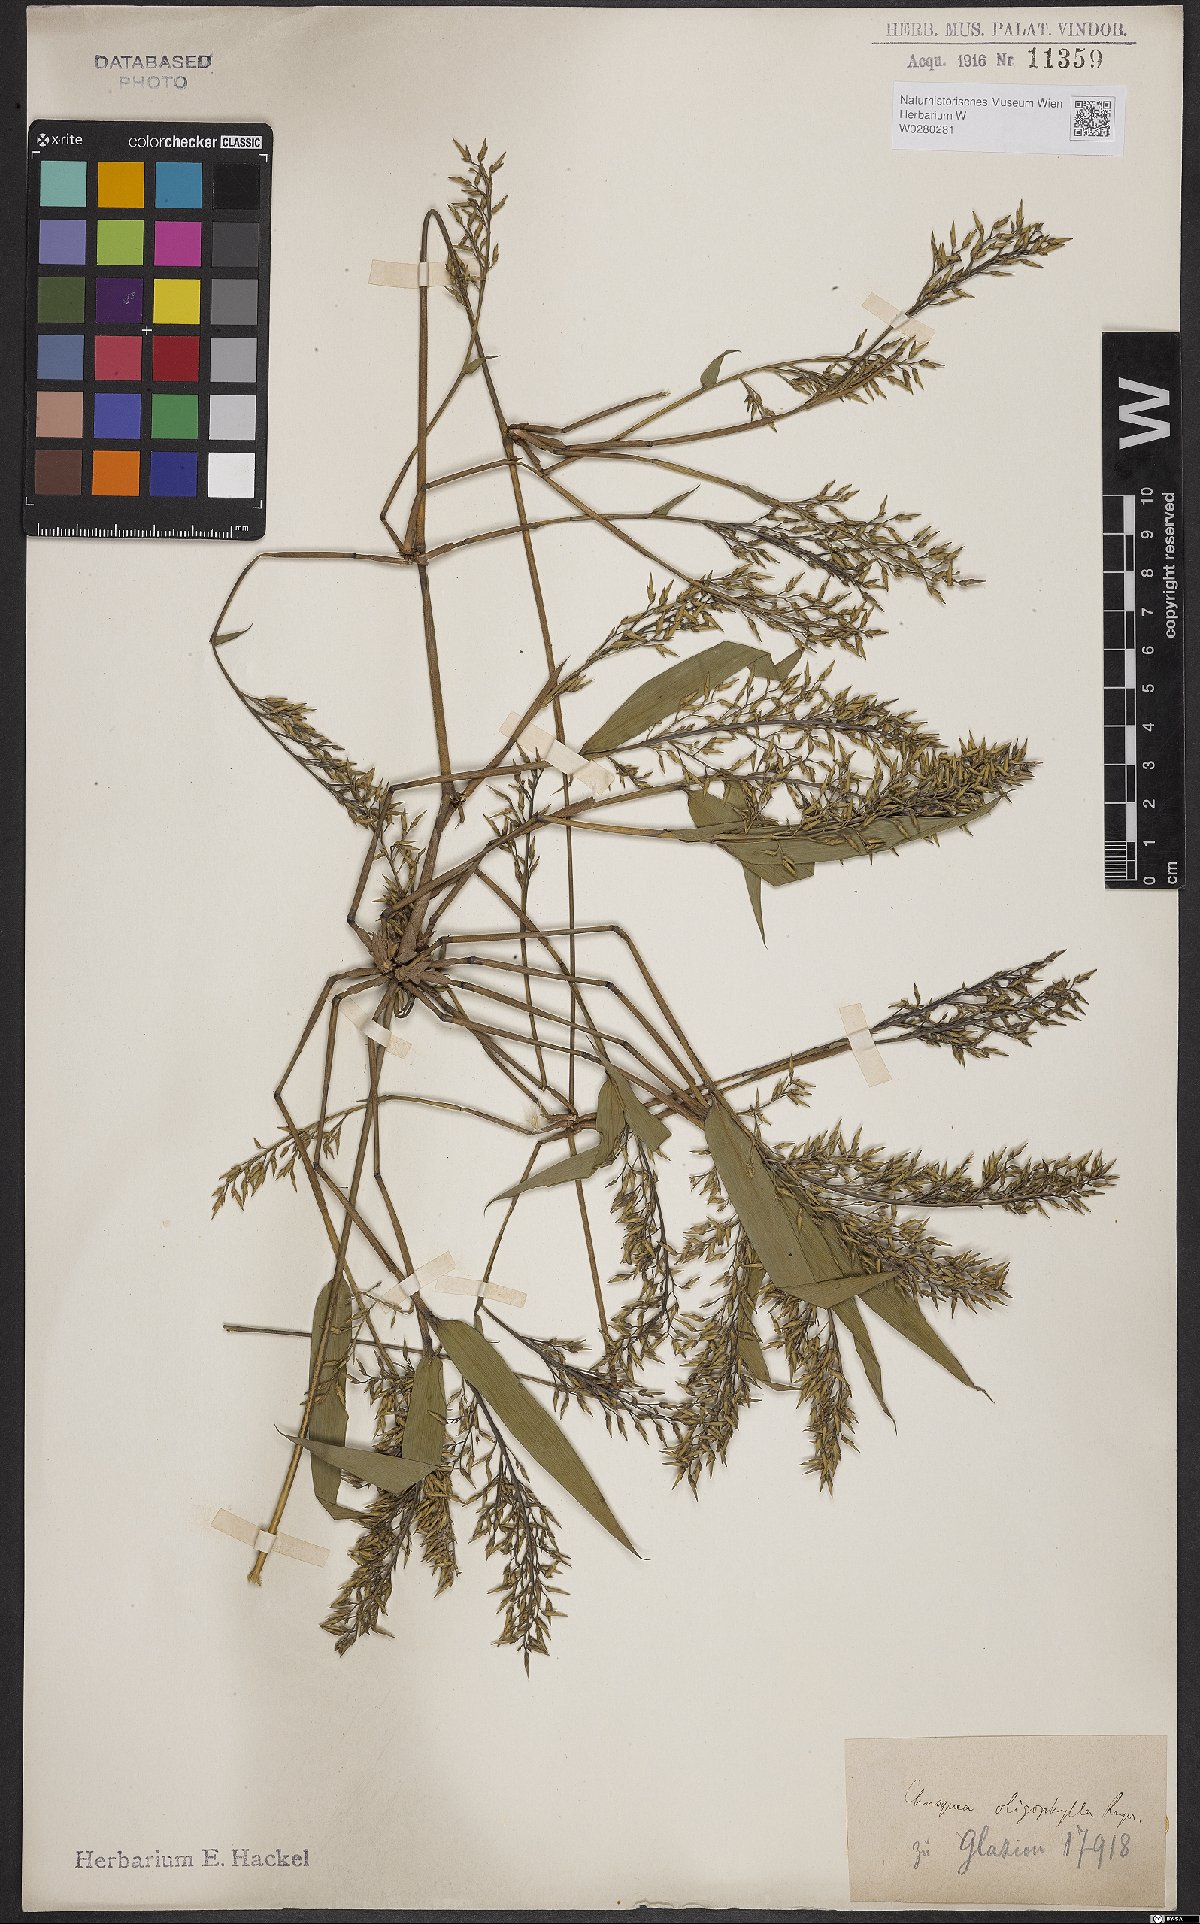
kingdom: Plantae
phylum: Tracheophyta
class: Liliopsida
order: Poales
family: Poaceae
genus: Chusquea
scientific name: Chusquea oligophylla
